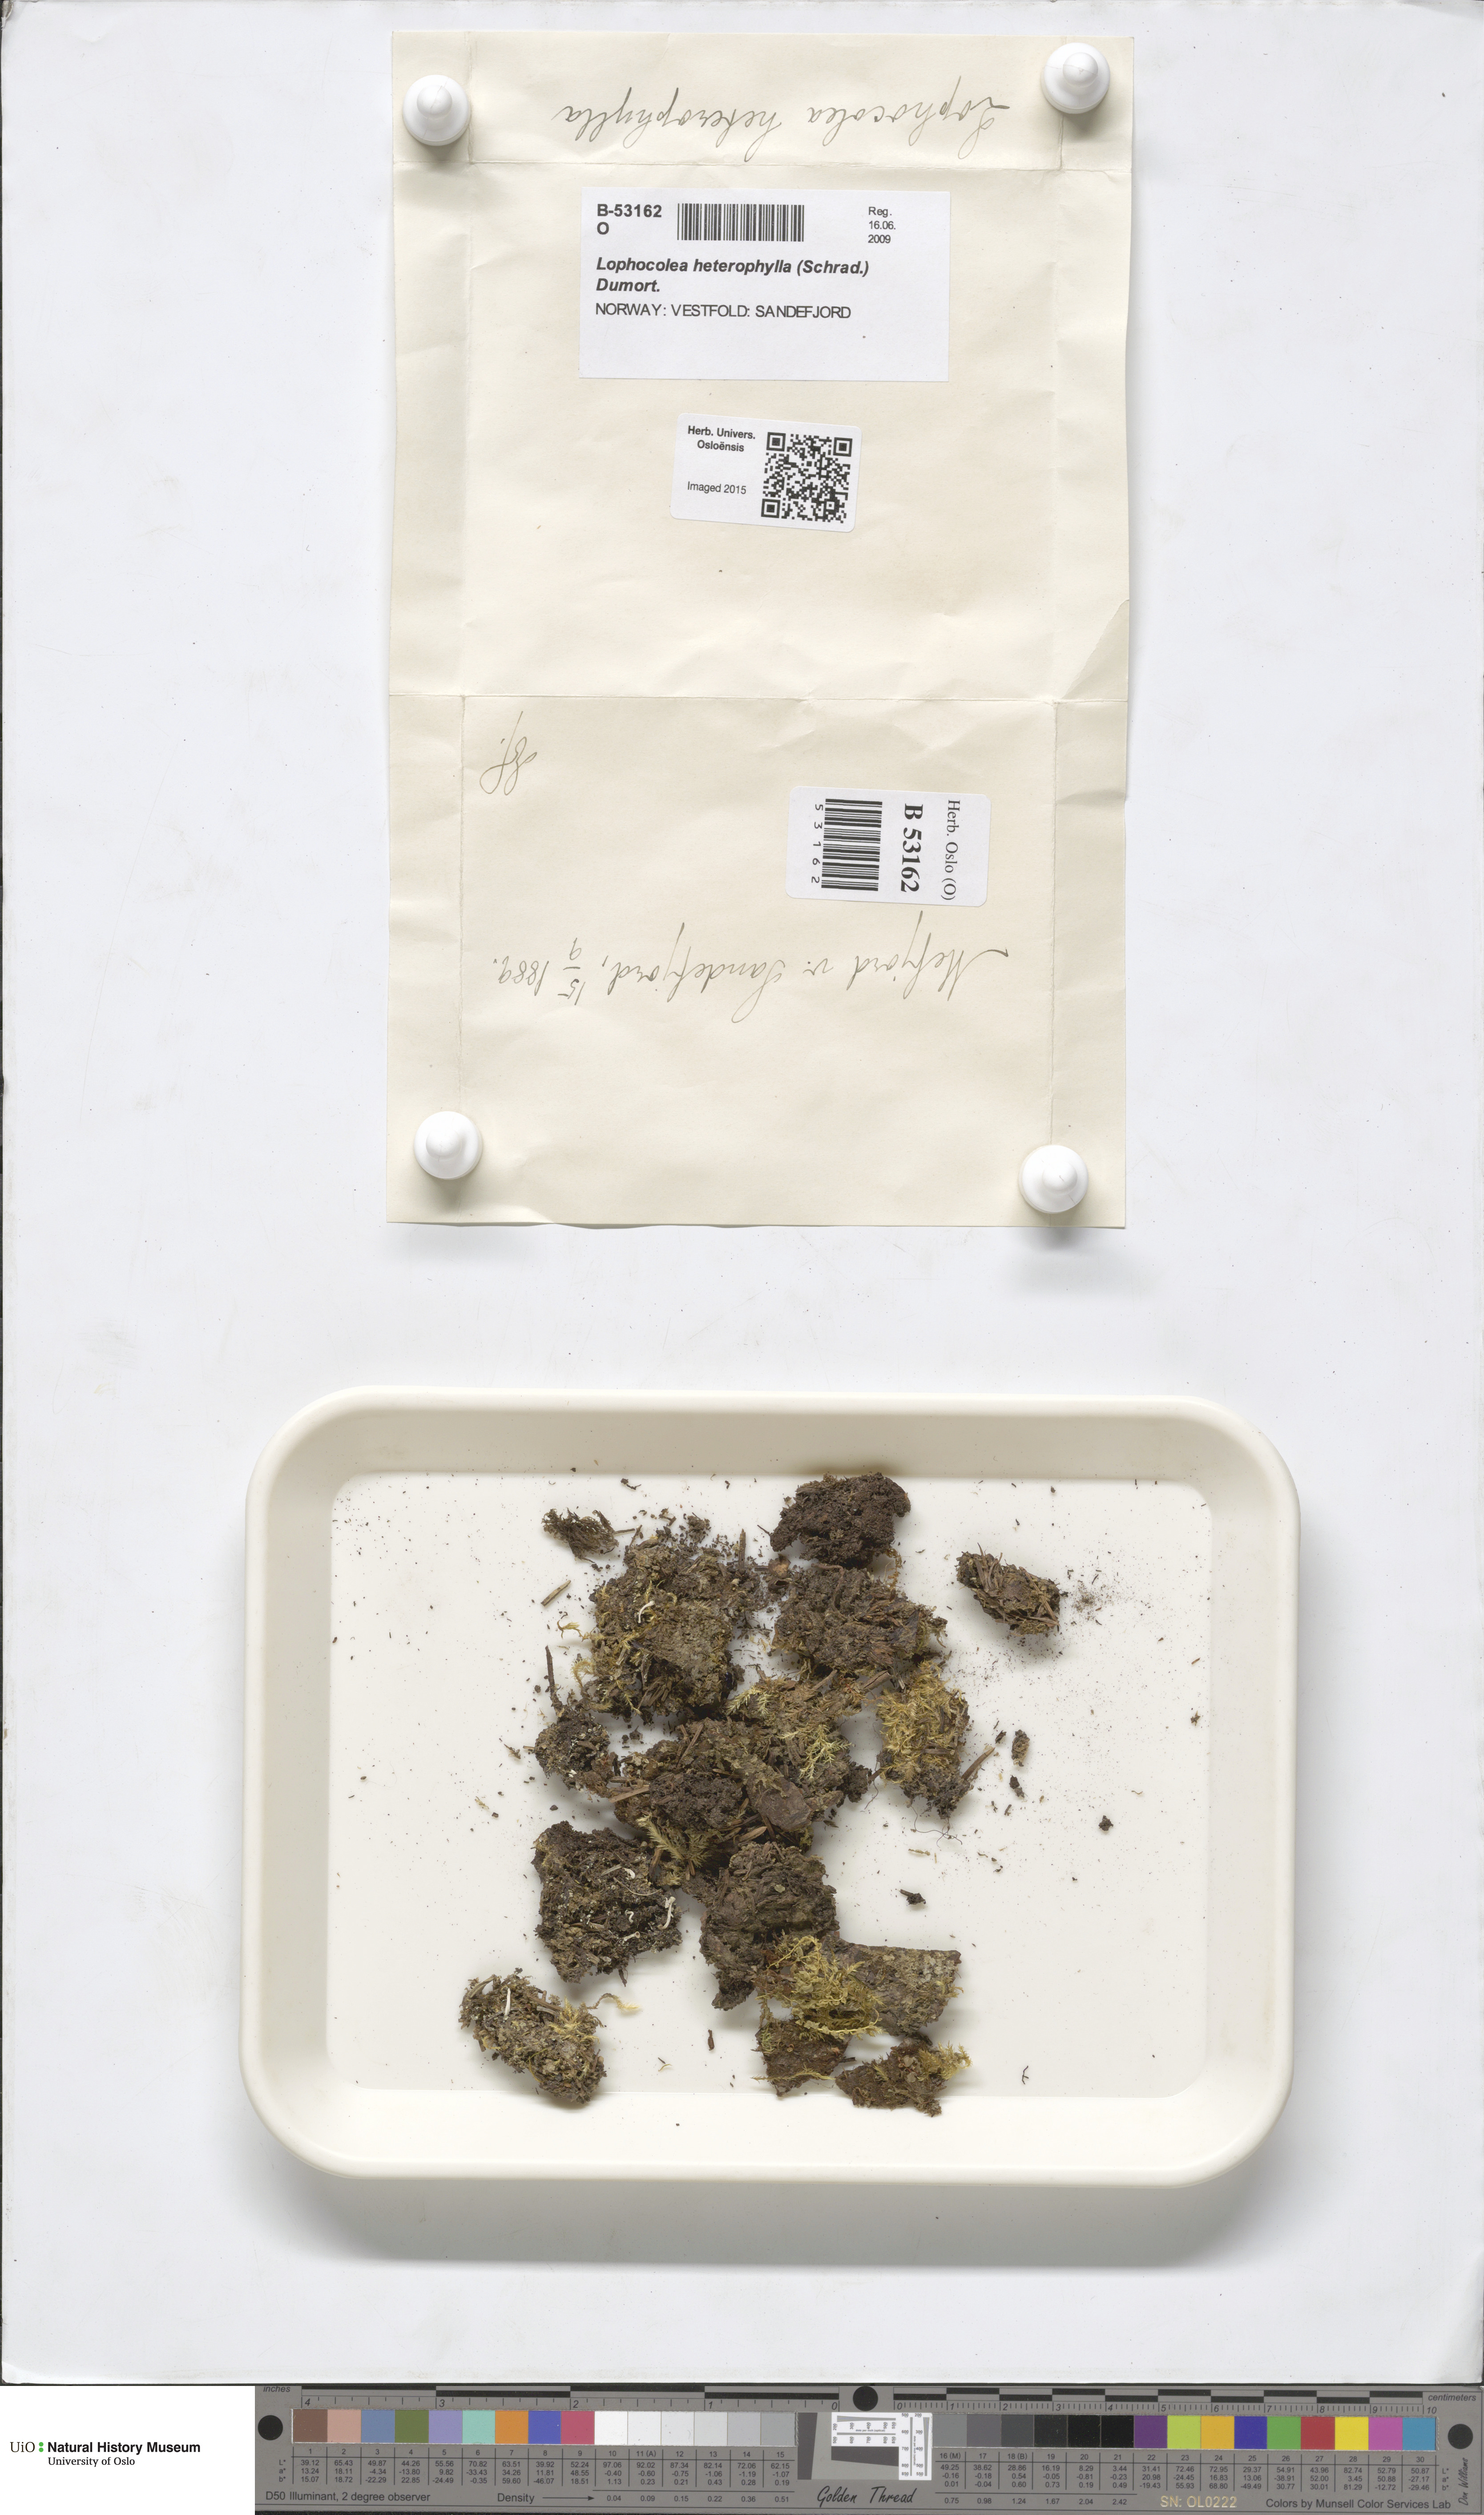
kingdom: Plantae
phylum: Marchantiophyta
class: Jungermanniopsida
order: Jungermanniales
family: Lophocoleaceae
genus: Lophocolea
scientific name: Lophocolea heterophylla
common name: Variable-leaved crestwort
